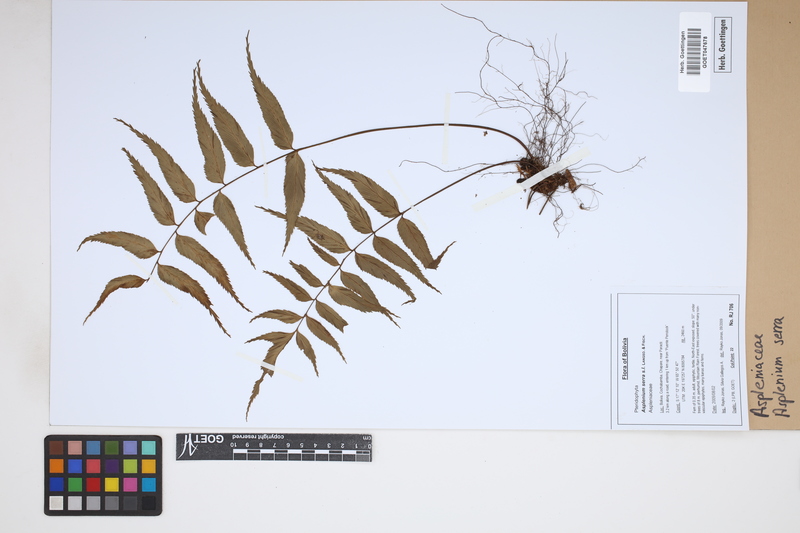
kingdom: Plantae
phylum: Tracheophyta
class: Polypodiopsida
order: Polypodiales
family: Aspleniaceae
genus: Asplenium
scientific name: Asplenium serra
